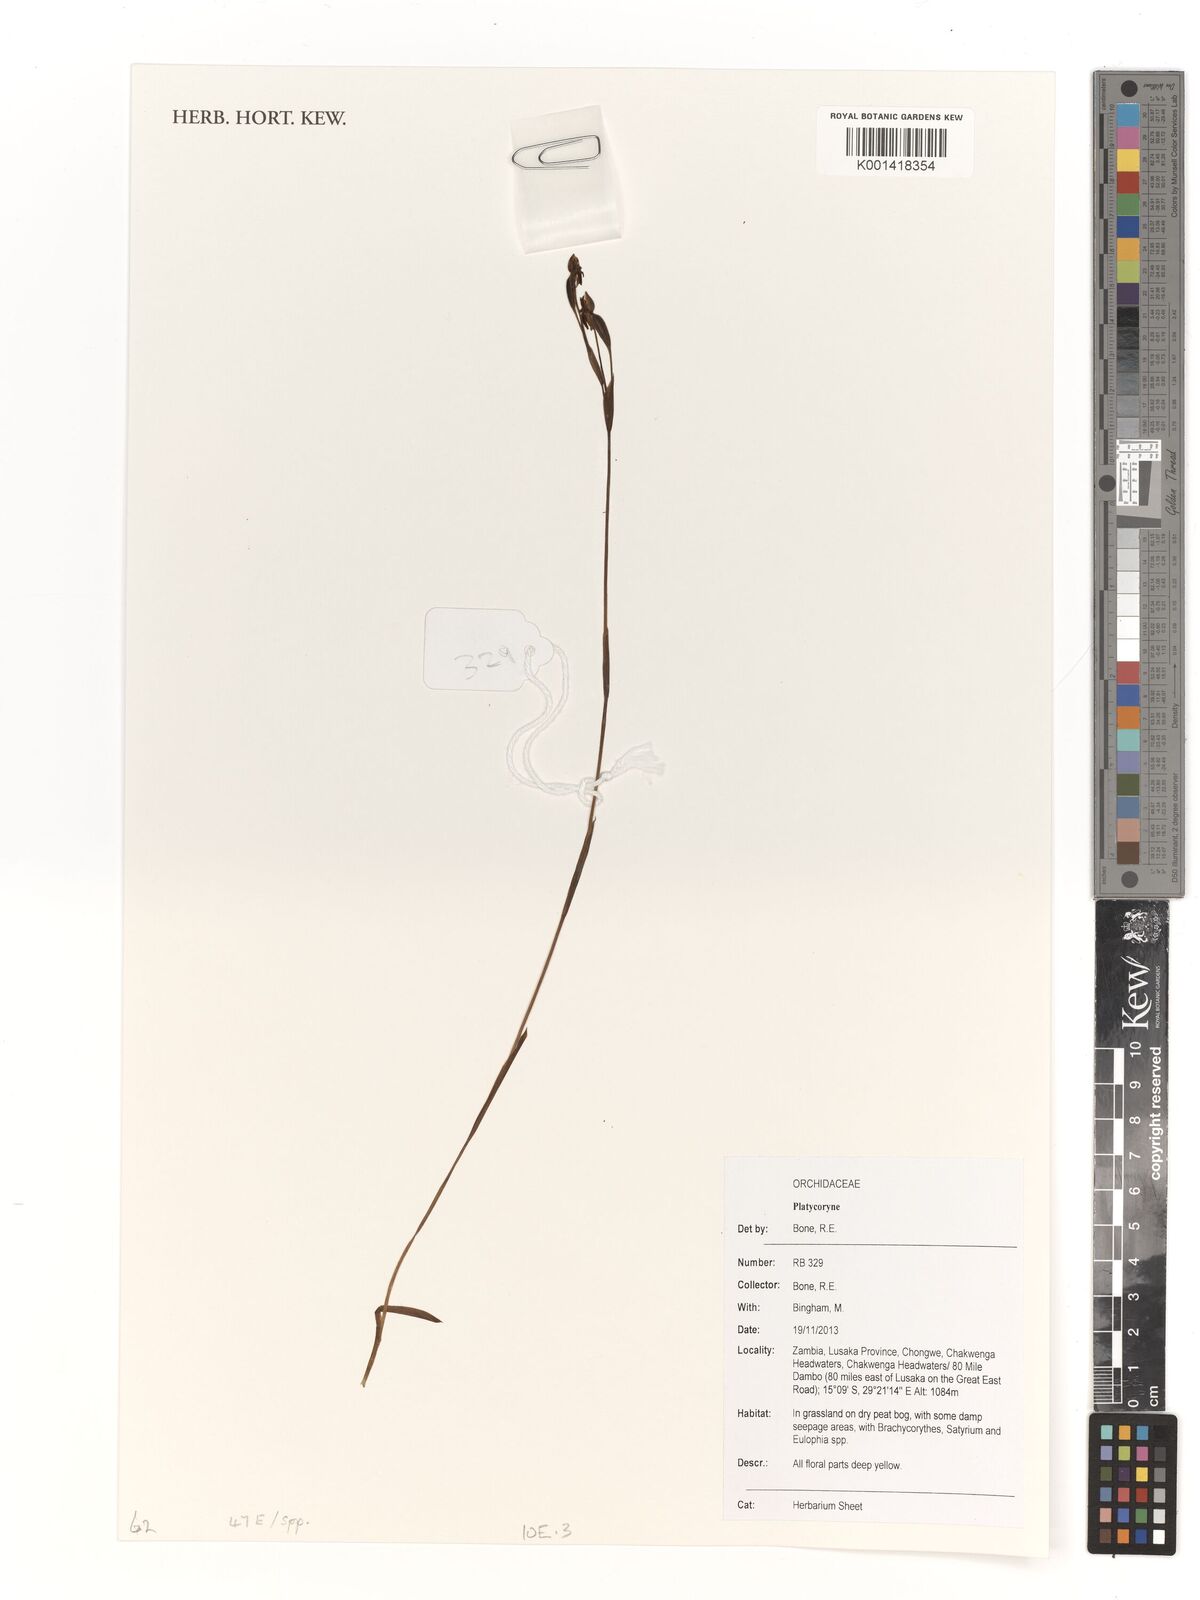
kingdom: Plantae
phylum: Tracheophyta
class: Liliopsida
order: Asparagales
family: Orchidaceae
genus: Platycoryne
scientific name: Platycoryne
